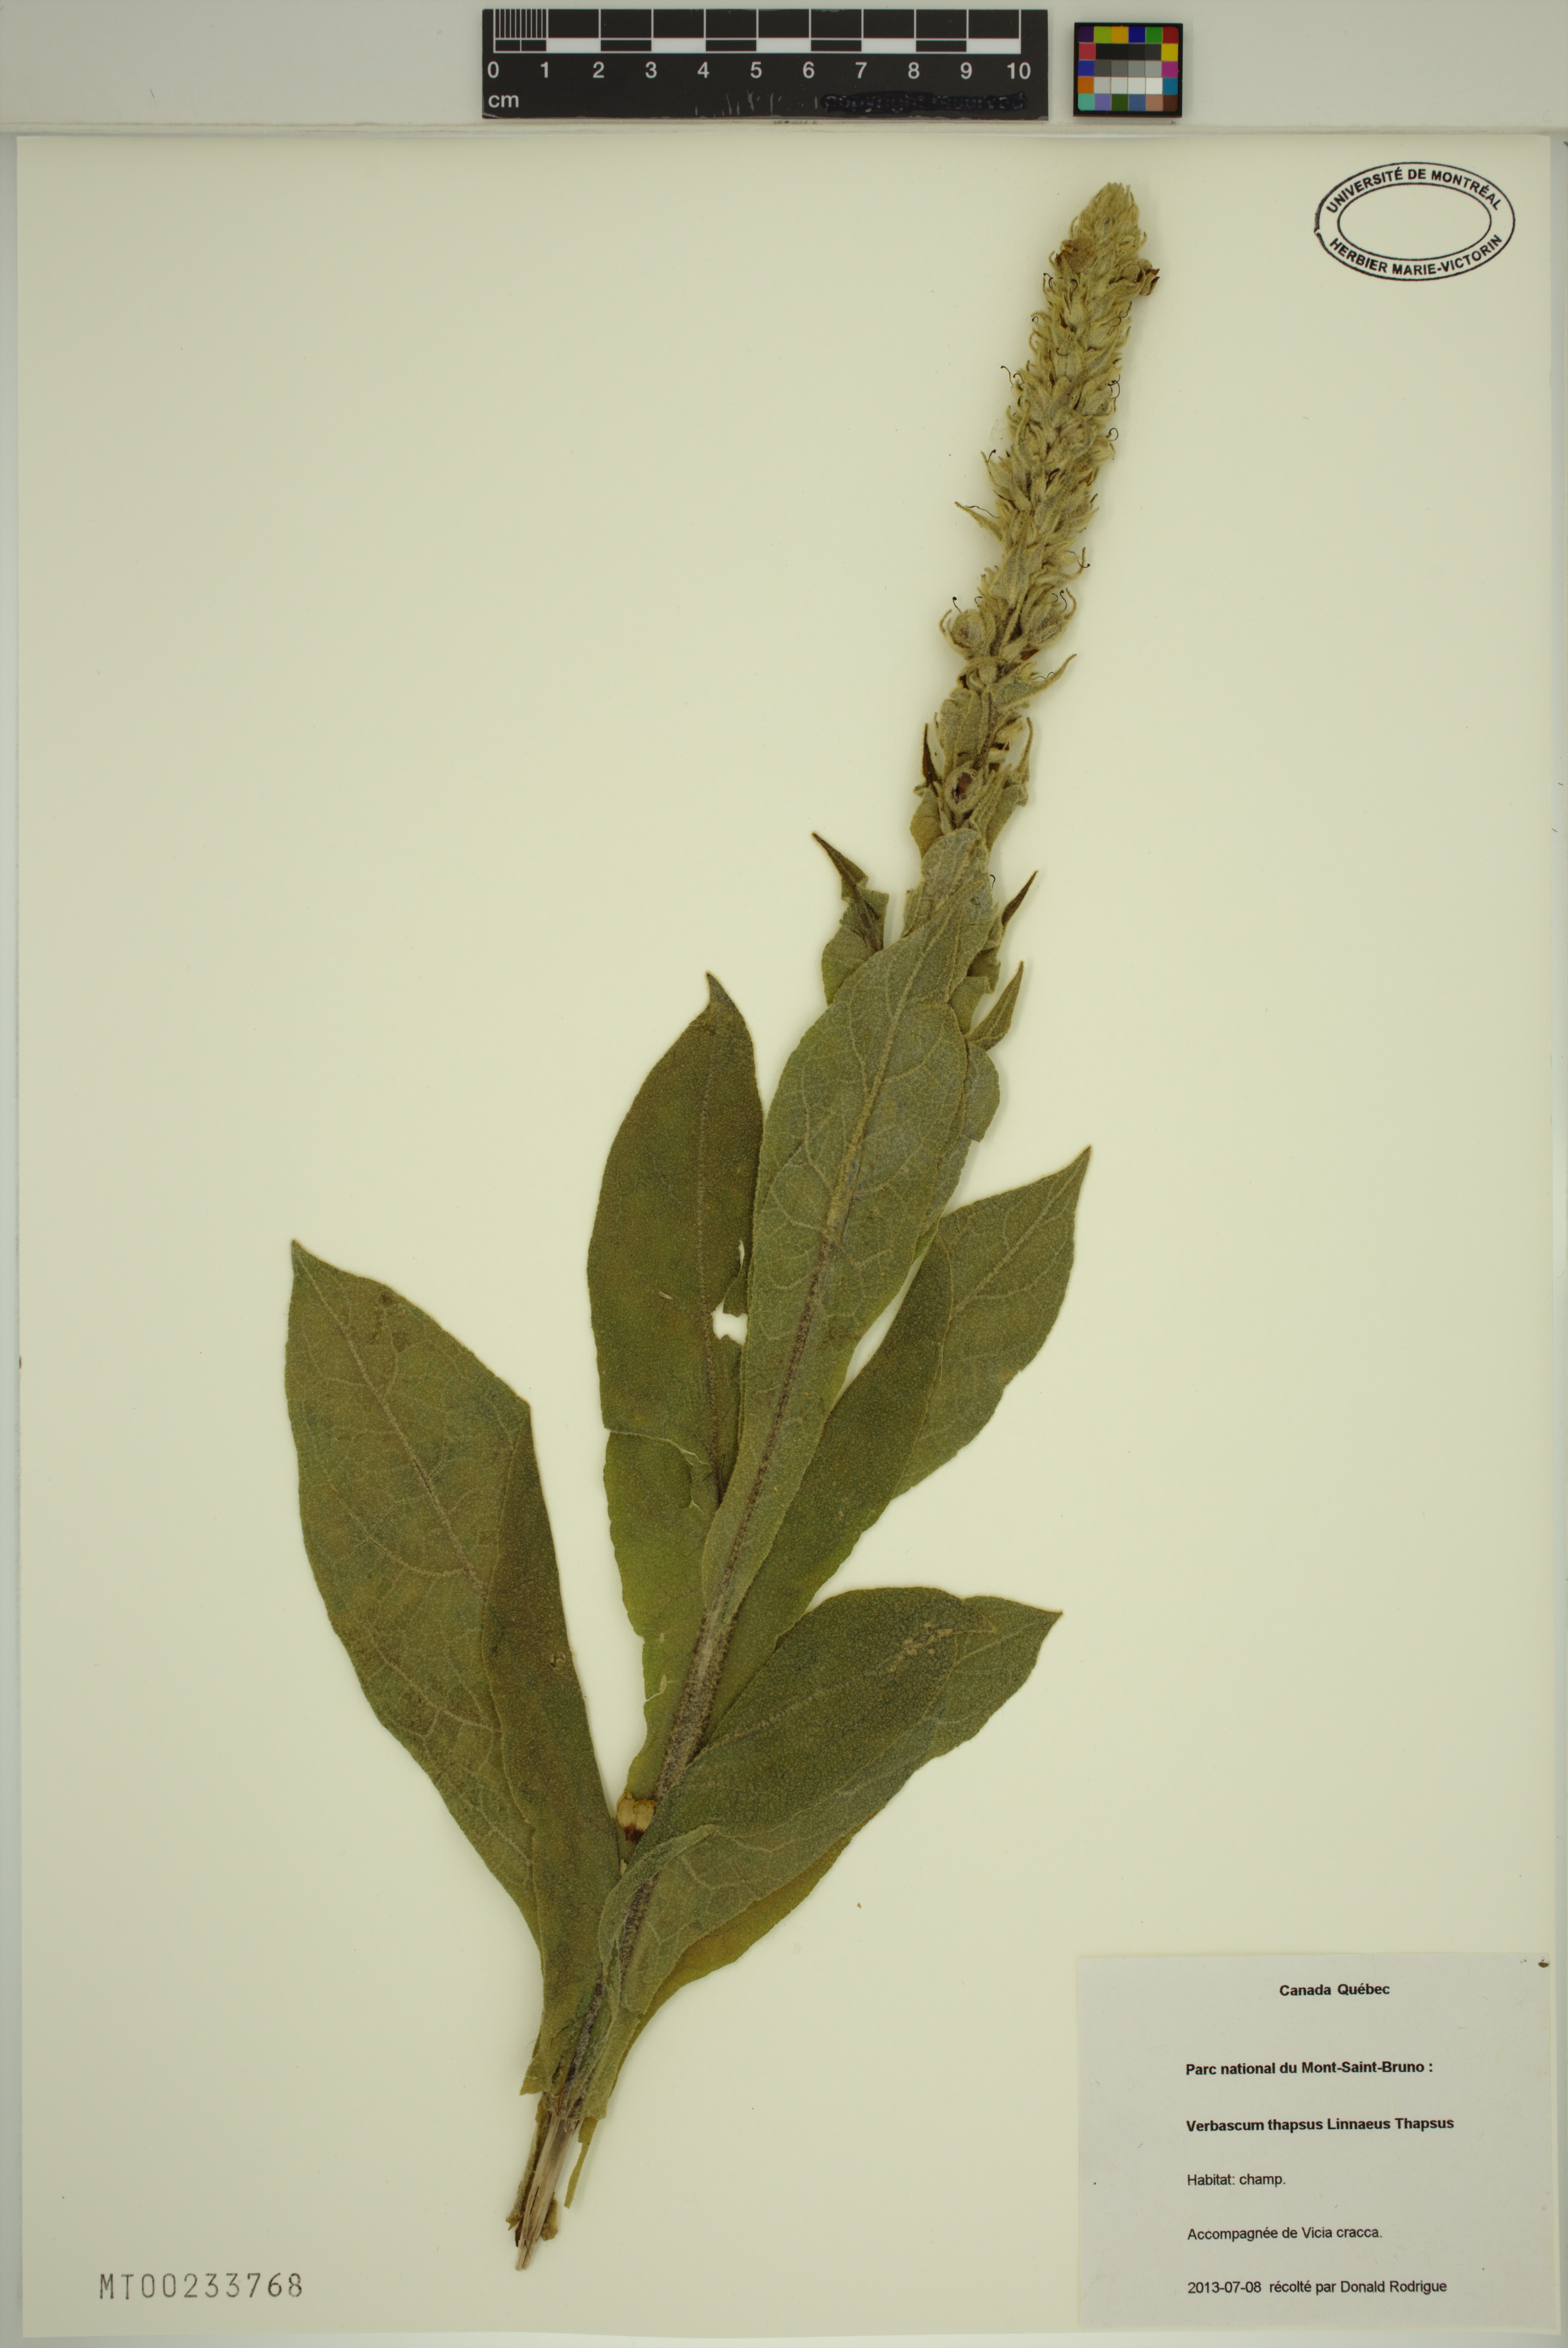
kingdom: Plantae
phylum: Tracheophyta
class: Magnoliopsida
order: Lamiales
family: Scrophulariaceae
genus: Verbascum
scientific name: Verbascum thapsus
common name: Common mullein
